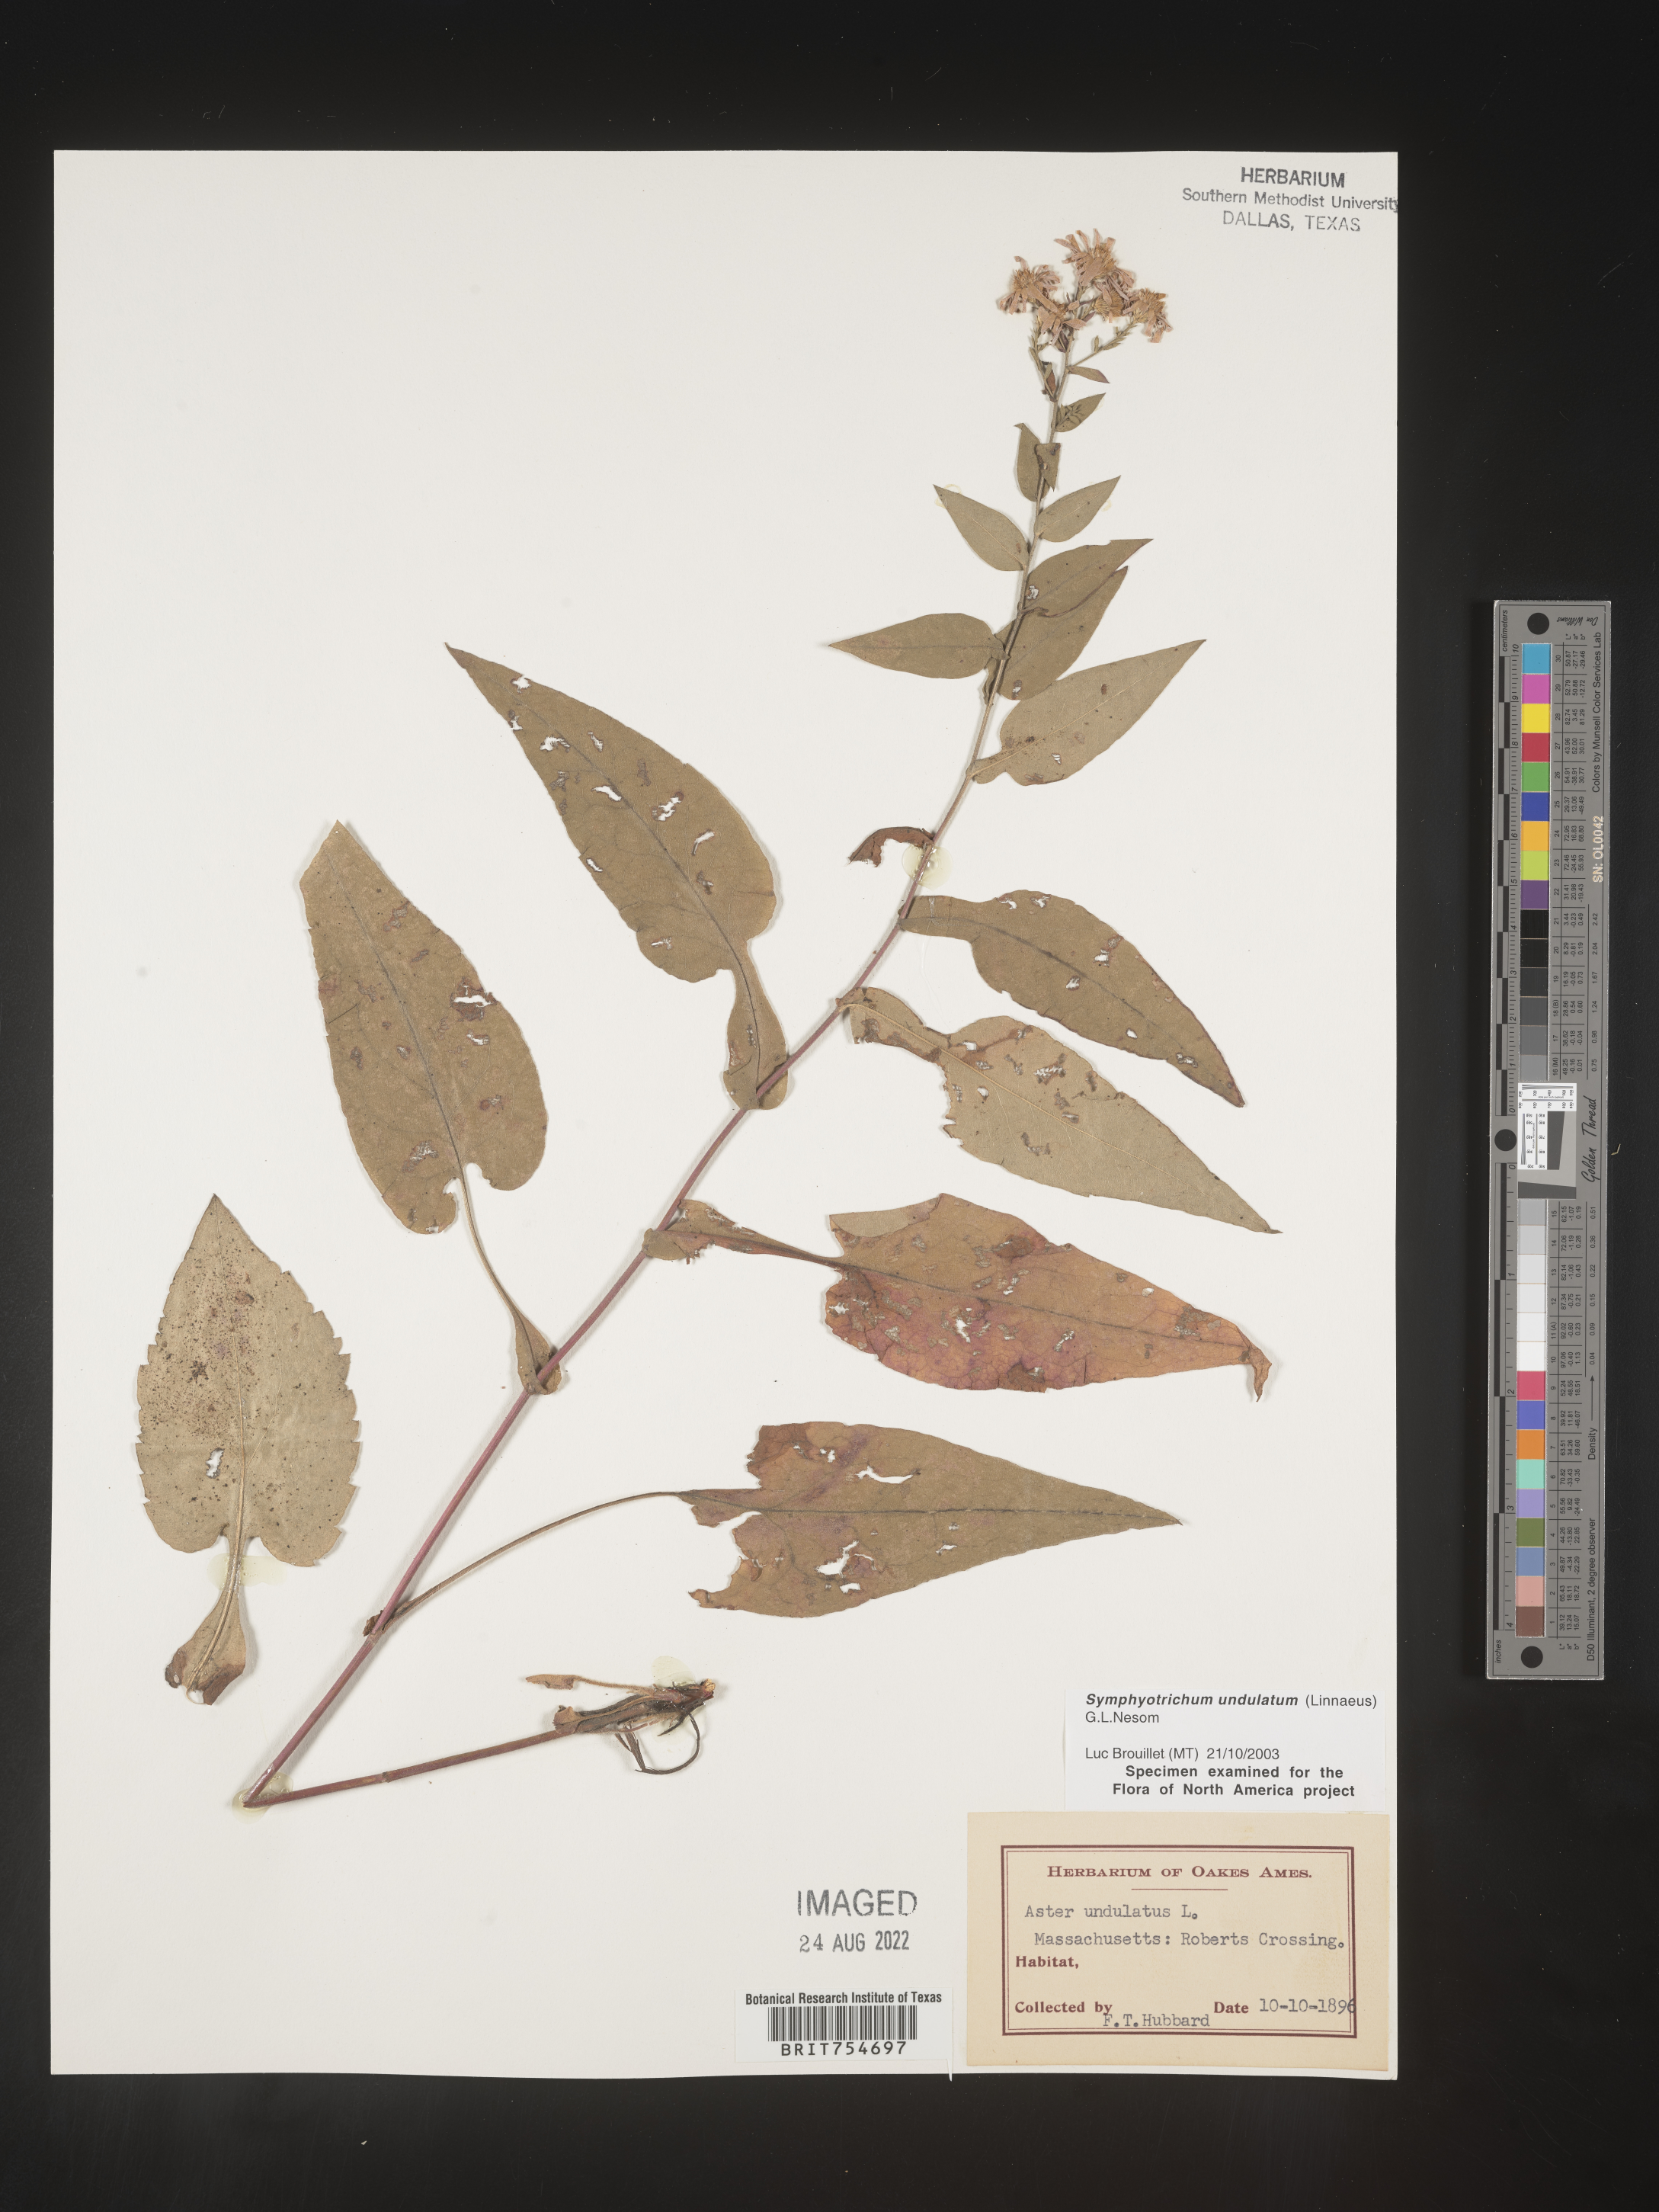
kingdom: Plantae
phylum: Tracheophyta
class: Magnoliopsida
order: Asterales
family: Asteraceae
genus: Symphyotrichum
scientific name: Symphyotrichum undulatum
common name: Clasping heart-leaf aster
